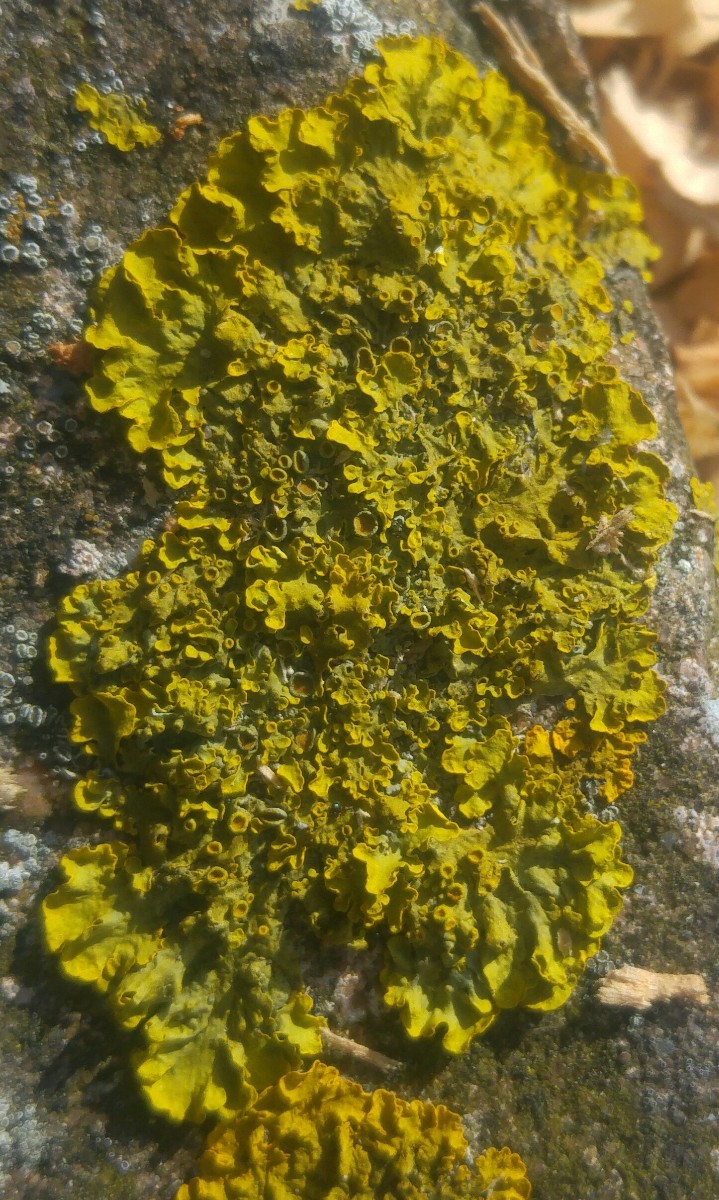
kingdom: Fungi
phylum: Ascomycota
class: Lecanoromycetes
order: Teloschistales
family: Teloschistaceae
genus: Xanthoria
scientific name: Xanthoria parietina
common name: almindelig væggelav
